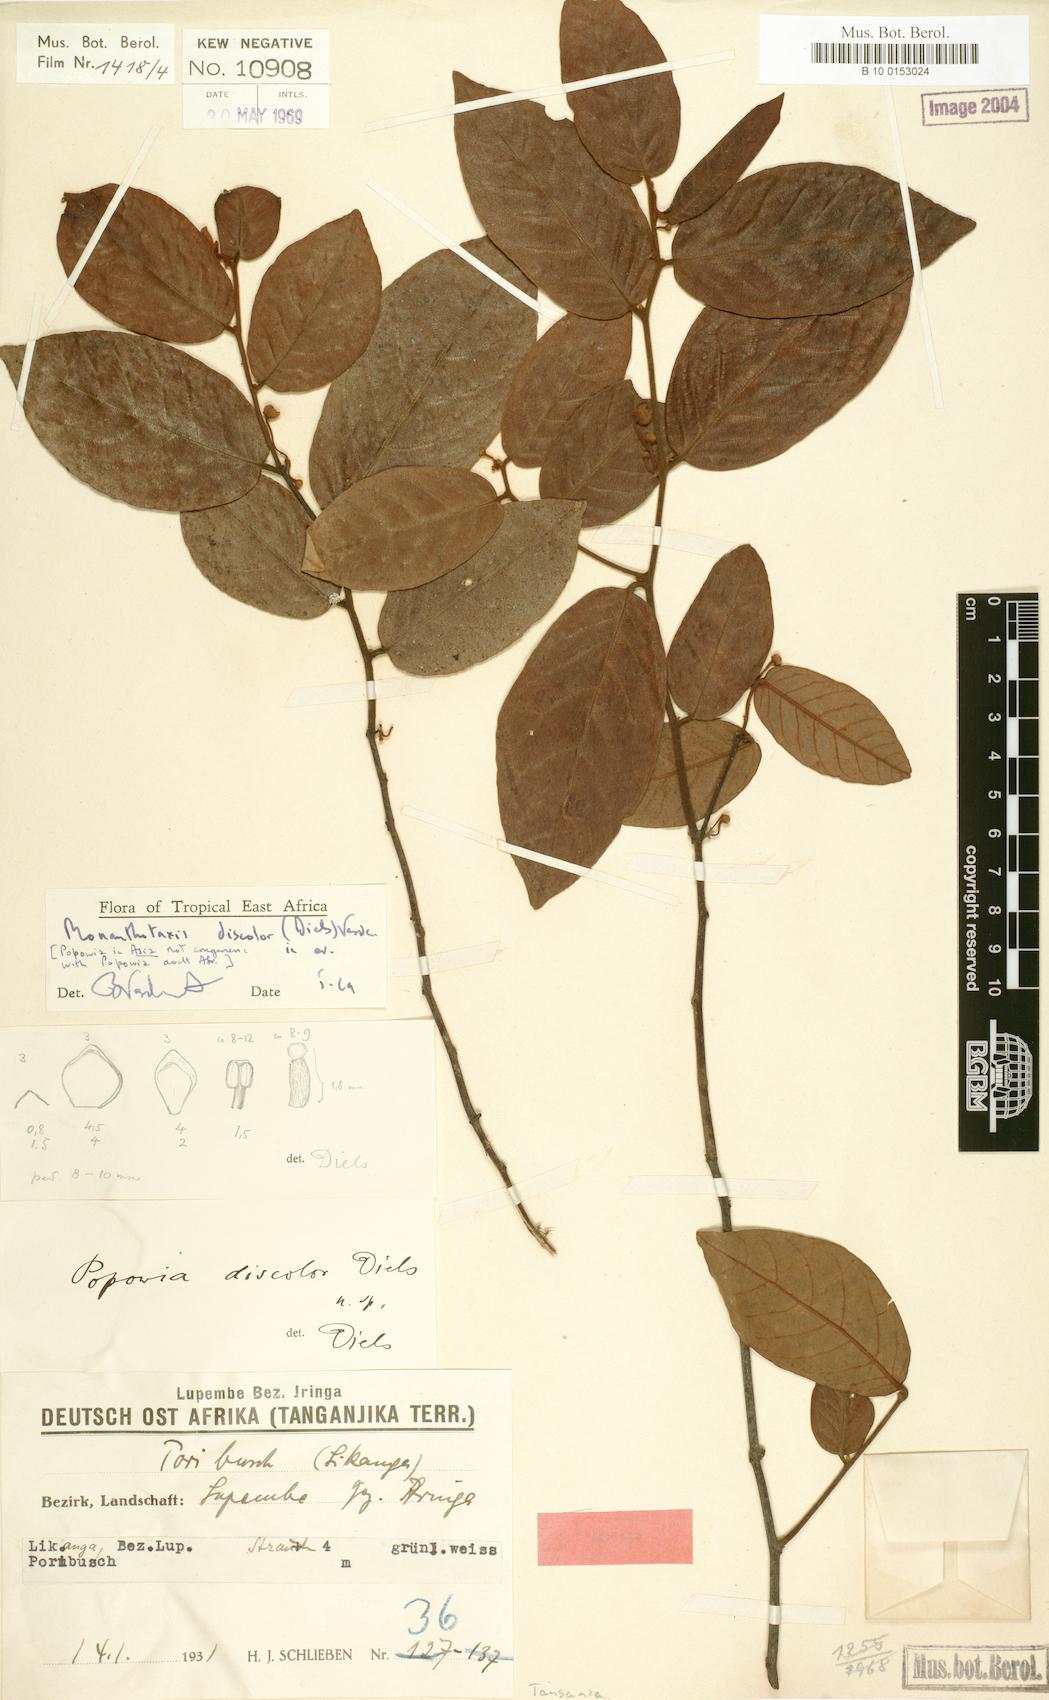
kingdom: Plantae
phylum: Tracheophyta
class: Magnoliopsida
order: Magnoliales
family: Annonaceae
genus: Monanthotaxis
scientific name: Monanthotaxis discolor
